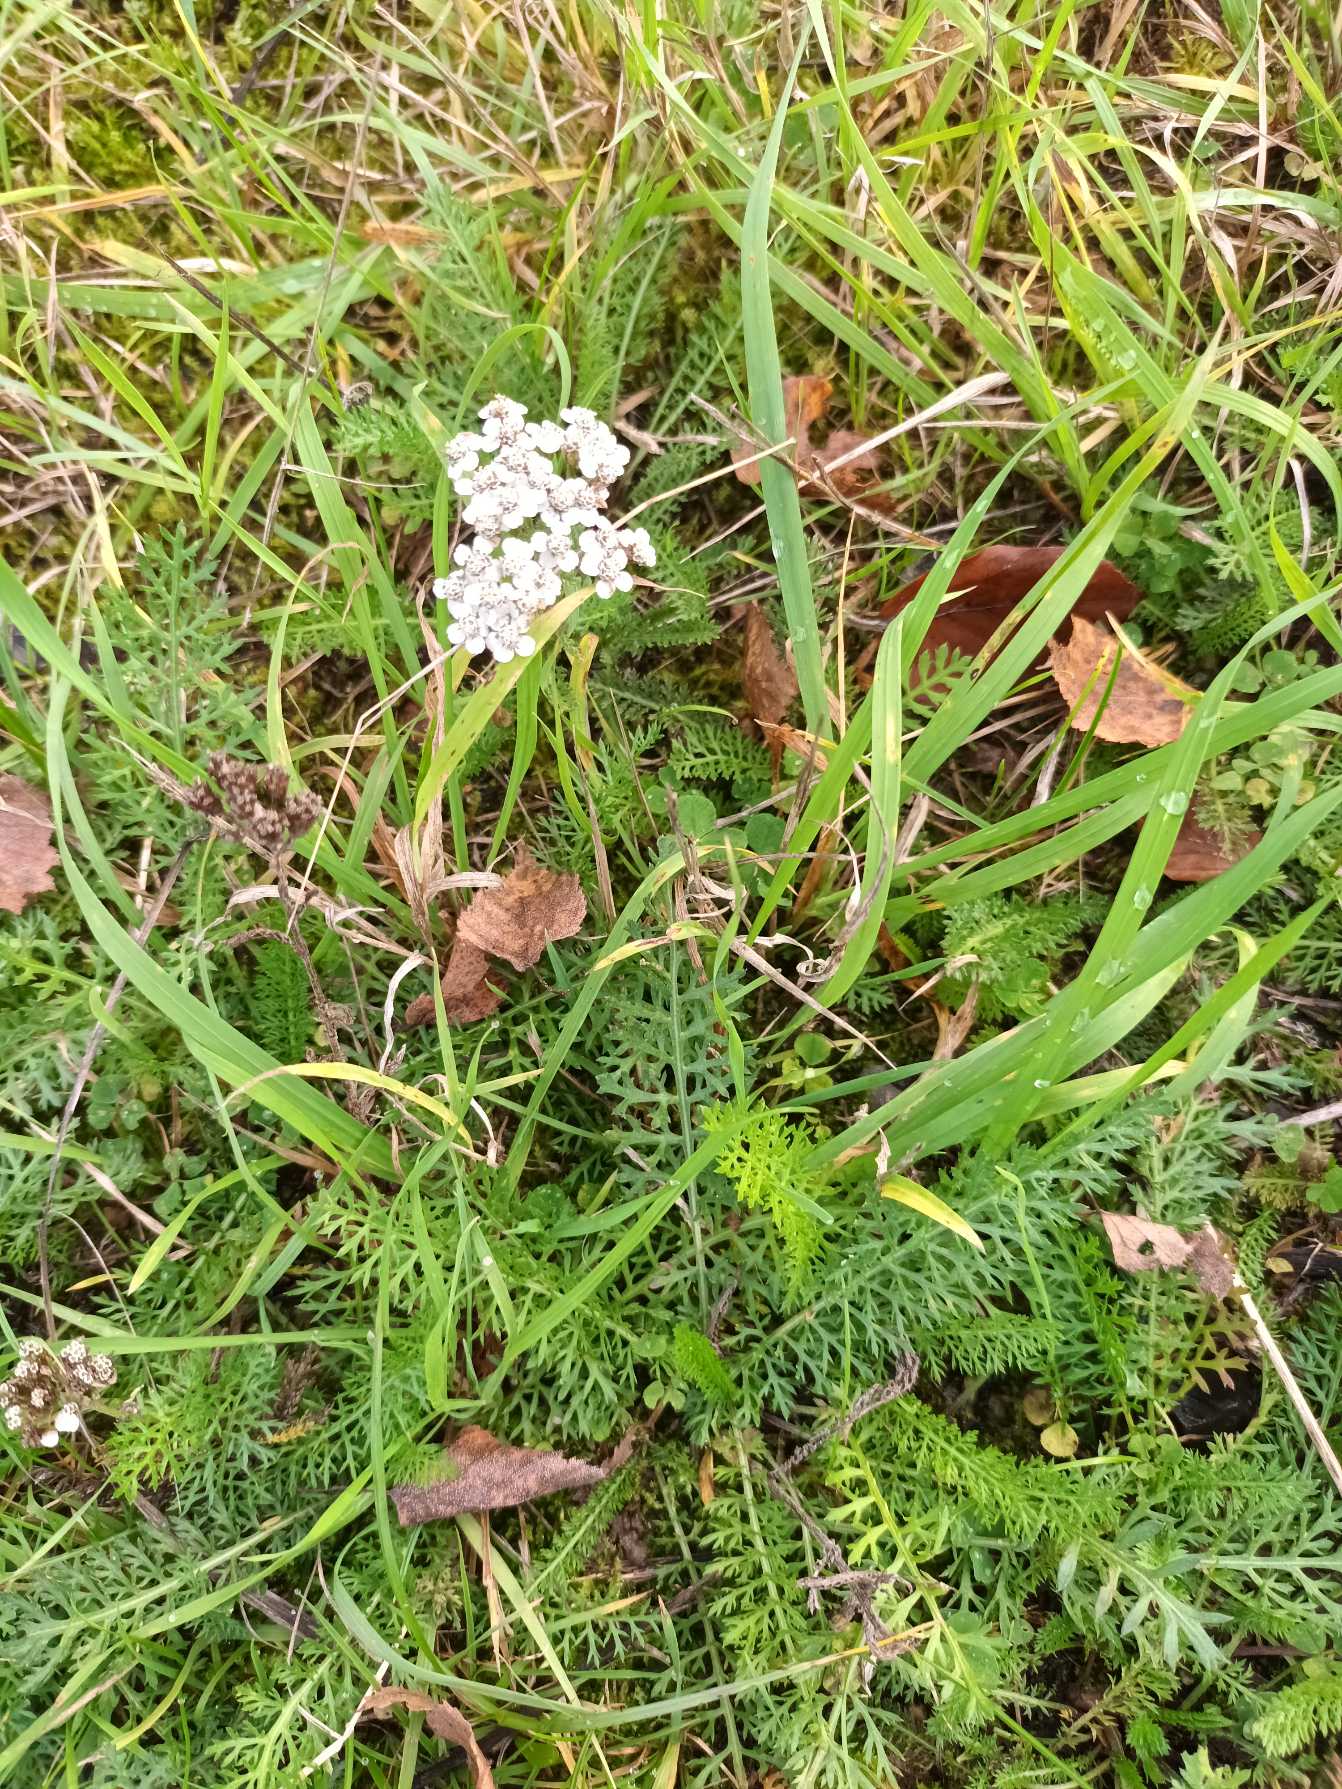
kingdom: Plantae
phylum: Tracheophyta
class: Magnoliopsida
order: Asterales
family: Asteraceae
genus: Achillea
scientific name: Achillea millefolium
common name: Almindelig røllike
